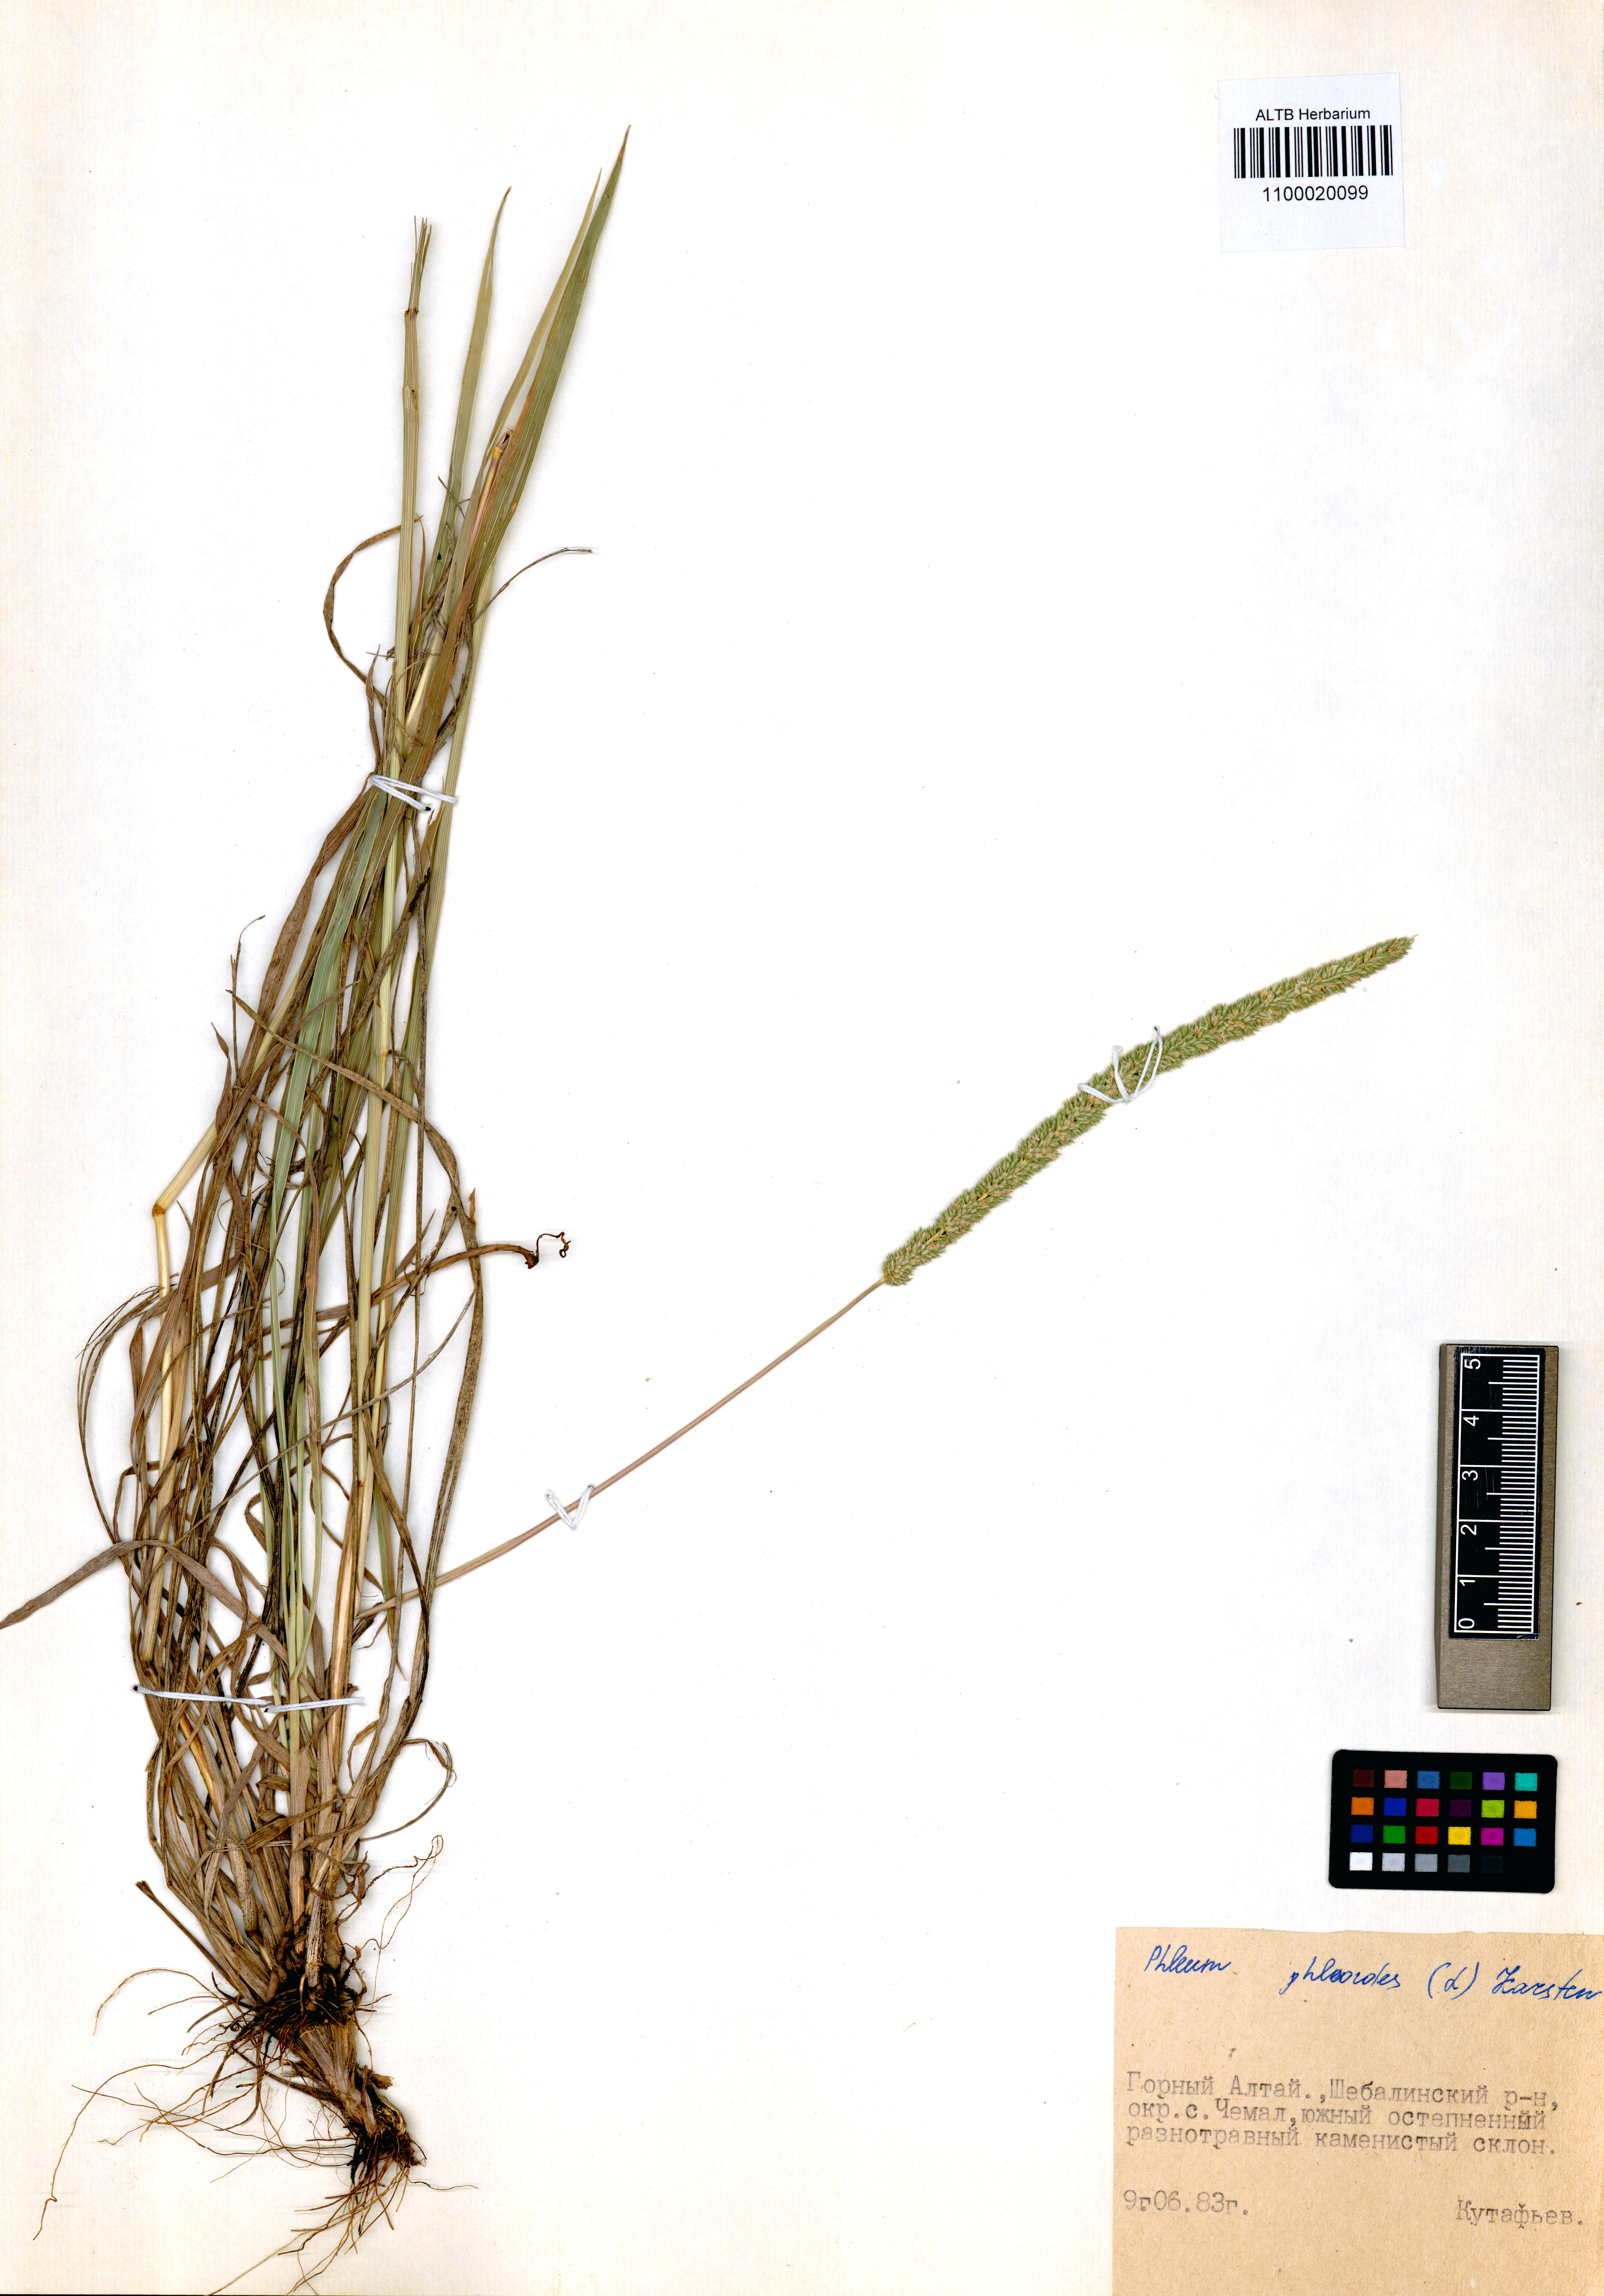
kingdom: Plantae
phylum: Tracheophyta
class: Liliopsida
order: Poales
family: Poaceae
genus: Phleum
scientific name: Phleum phleoides
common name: Purple-stem cat's-tail
